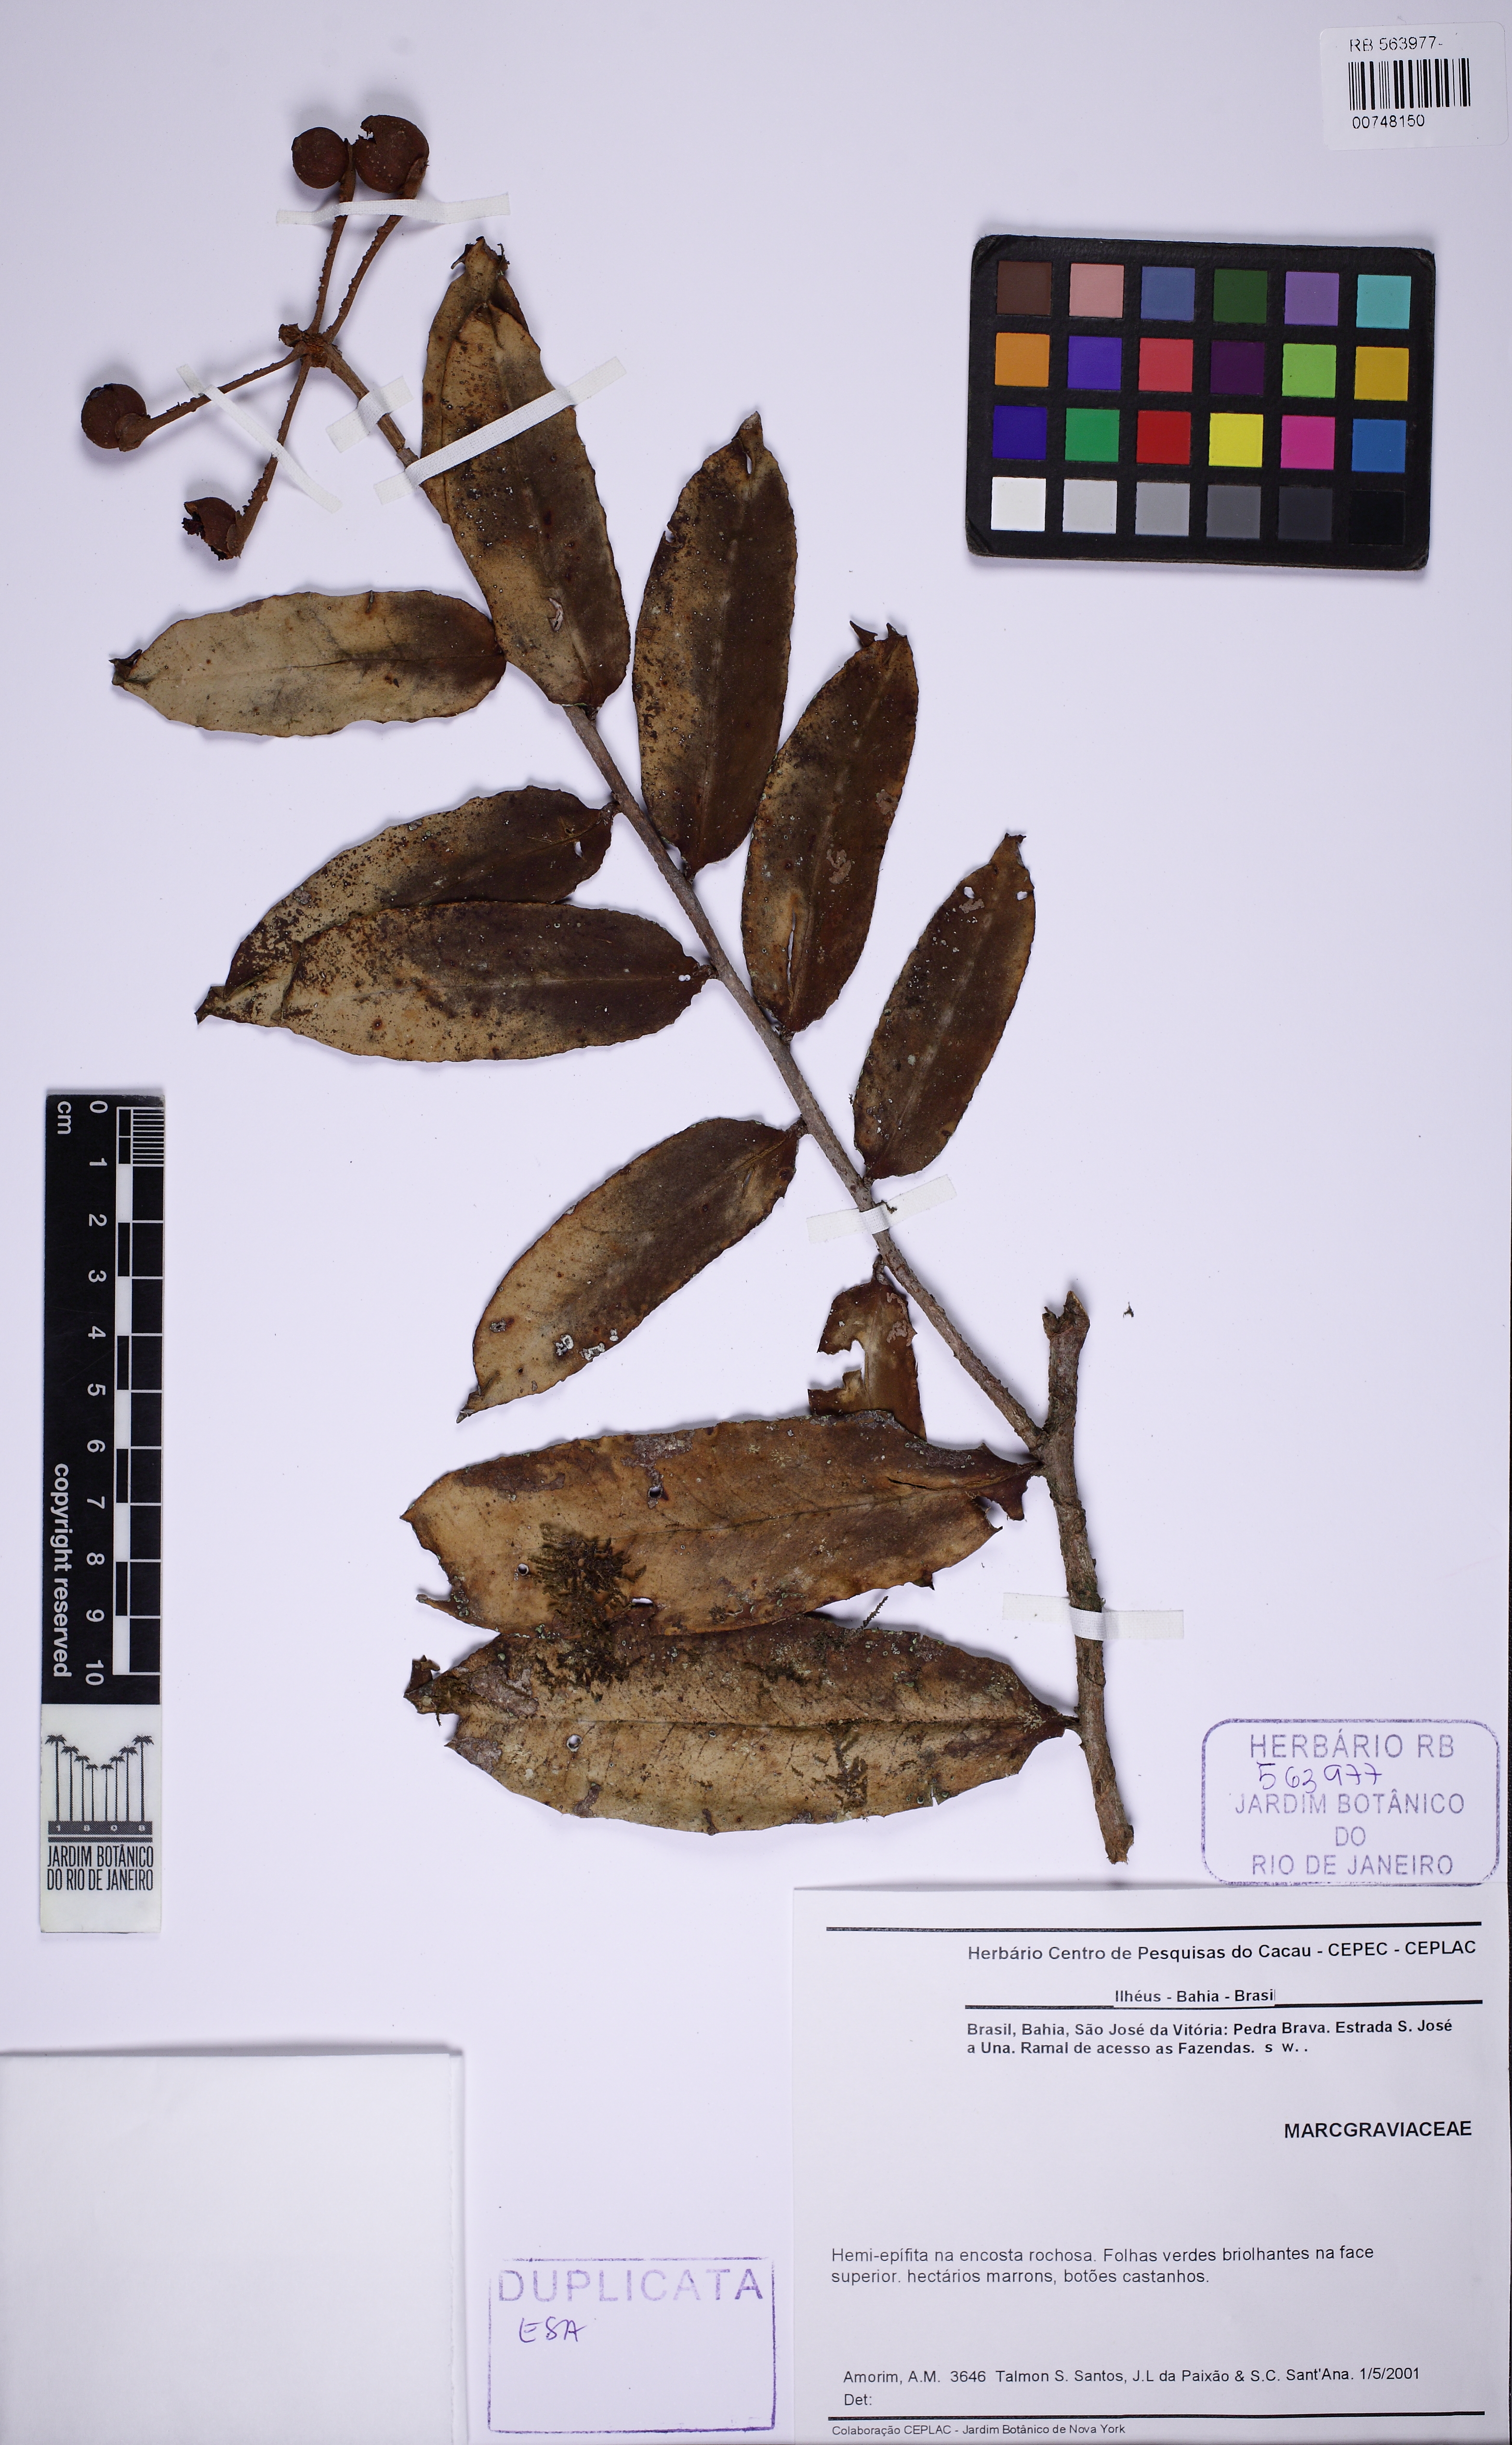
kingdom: Plantae
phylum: Tracheophyta
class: Magnoliopsida
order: Ericales
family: Marcgraviaceae
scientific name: Marcgraviaceae
